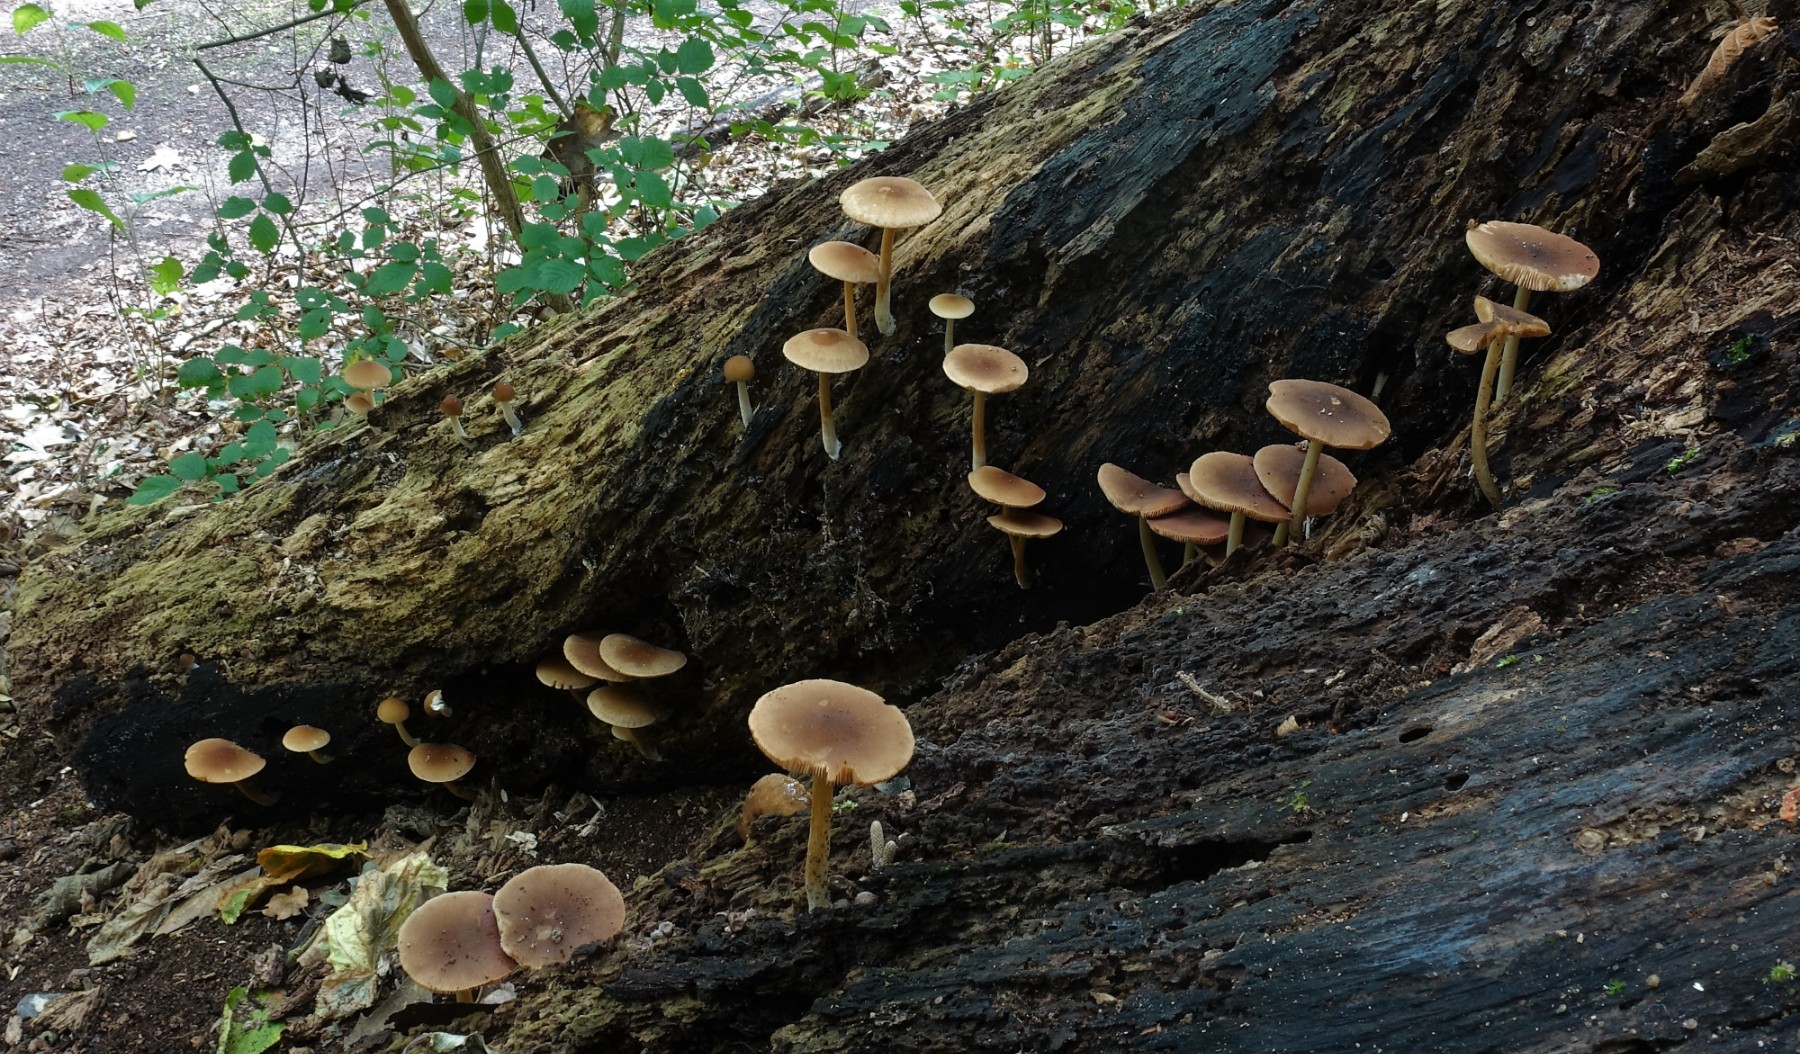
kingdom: Fungi
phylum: Basidiomycota
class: Agaricomycetes
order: Agaricales
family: Pluteaceae
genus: Pluteus
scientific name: Pluteus phlebophorus
